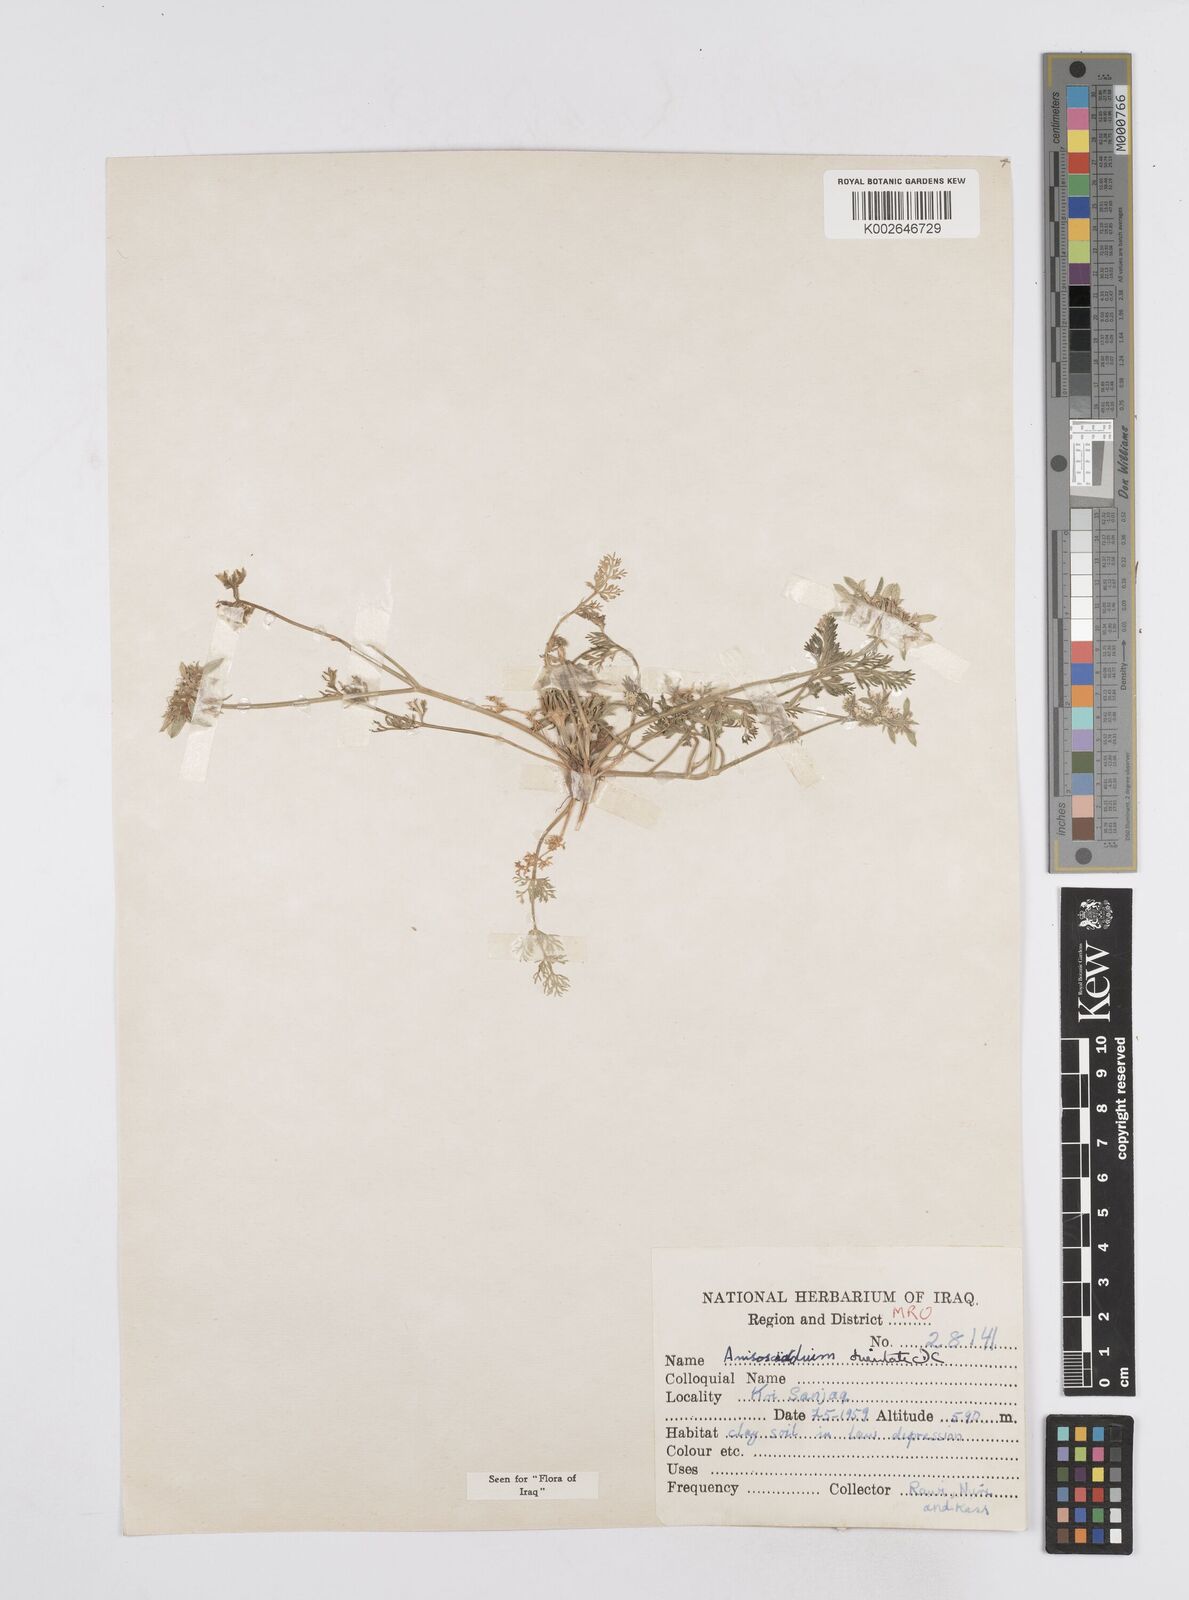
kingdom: Plantae
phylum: Tracheophyta
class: Magnoliopsida
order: Apiales
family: Apiaceae
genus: Anisosciadium
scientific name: Anisosciadium orientale
